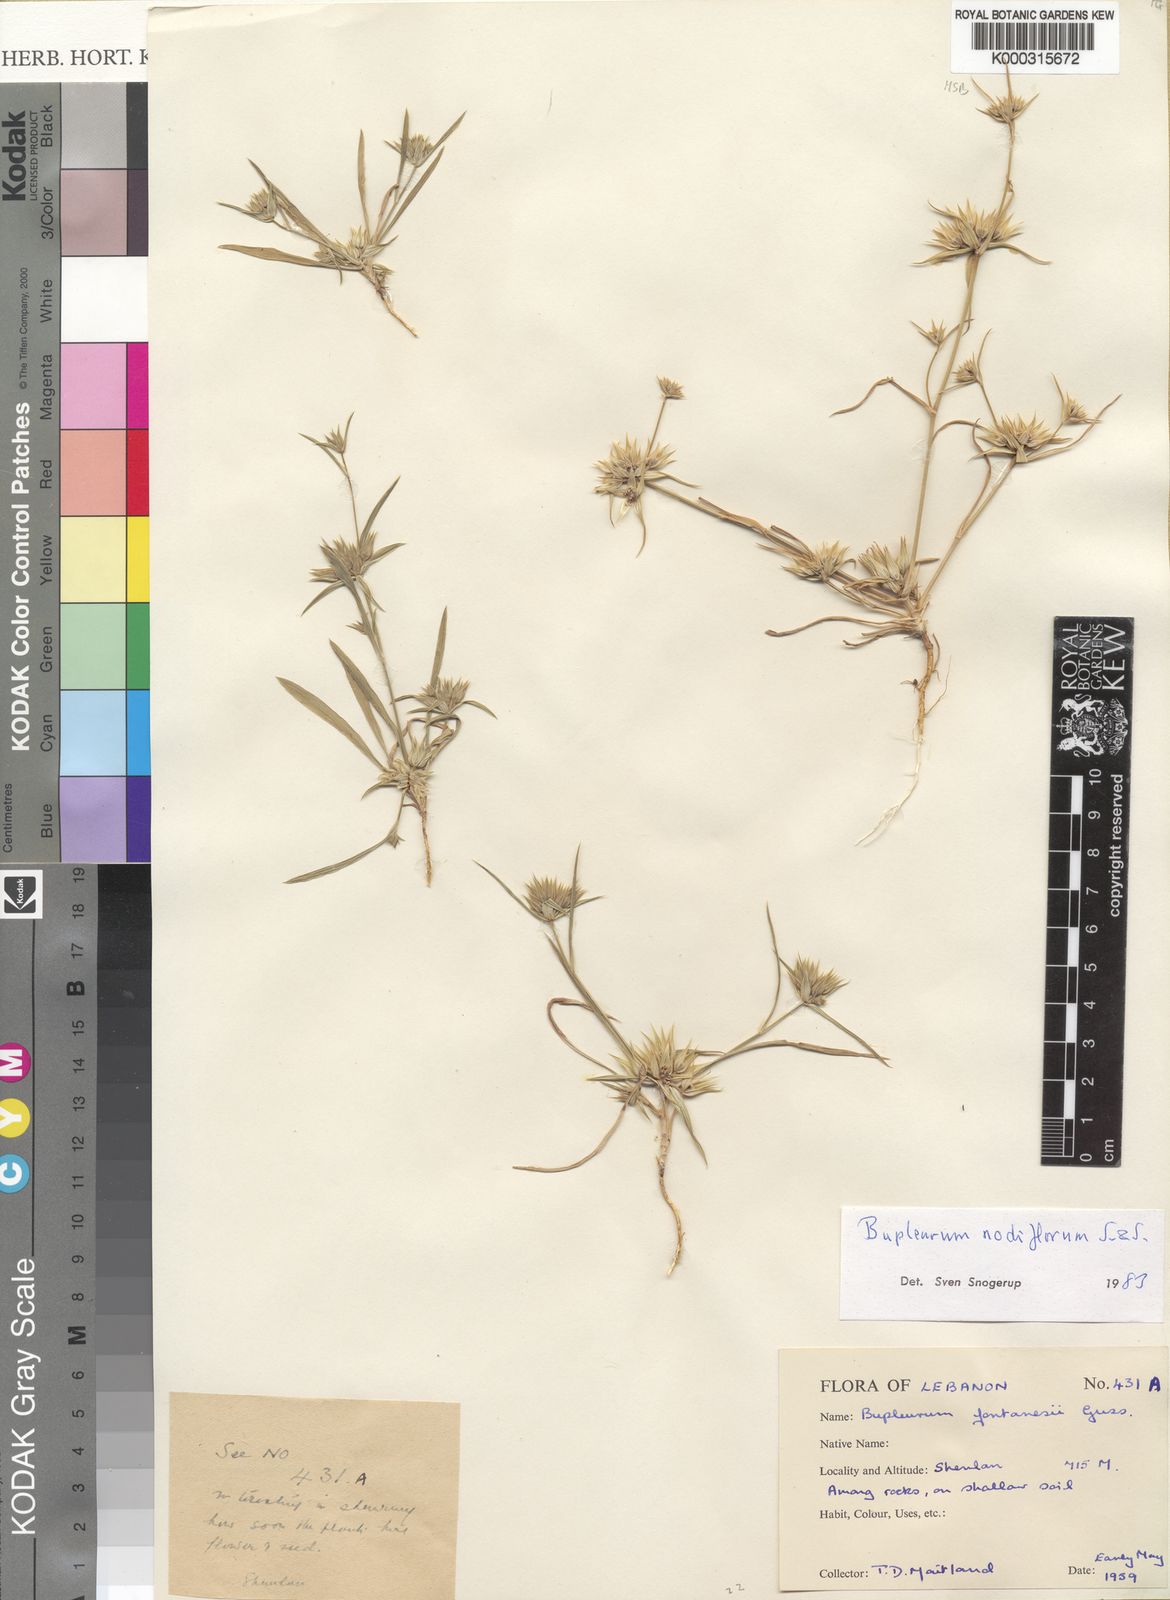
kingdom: Plantae
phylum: Tracheophyta
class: Magnoliopsida
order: Apiales
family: Apiaceae
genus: Bupleurum
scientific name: Bupleurum nodiflorum
